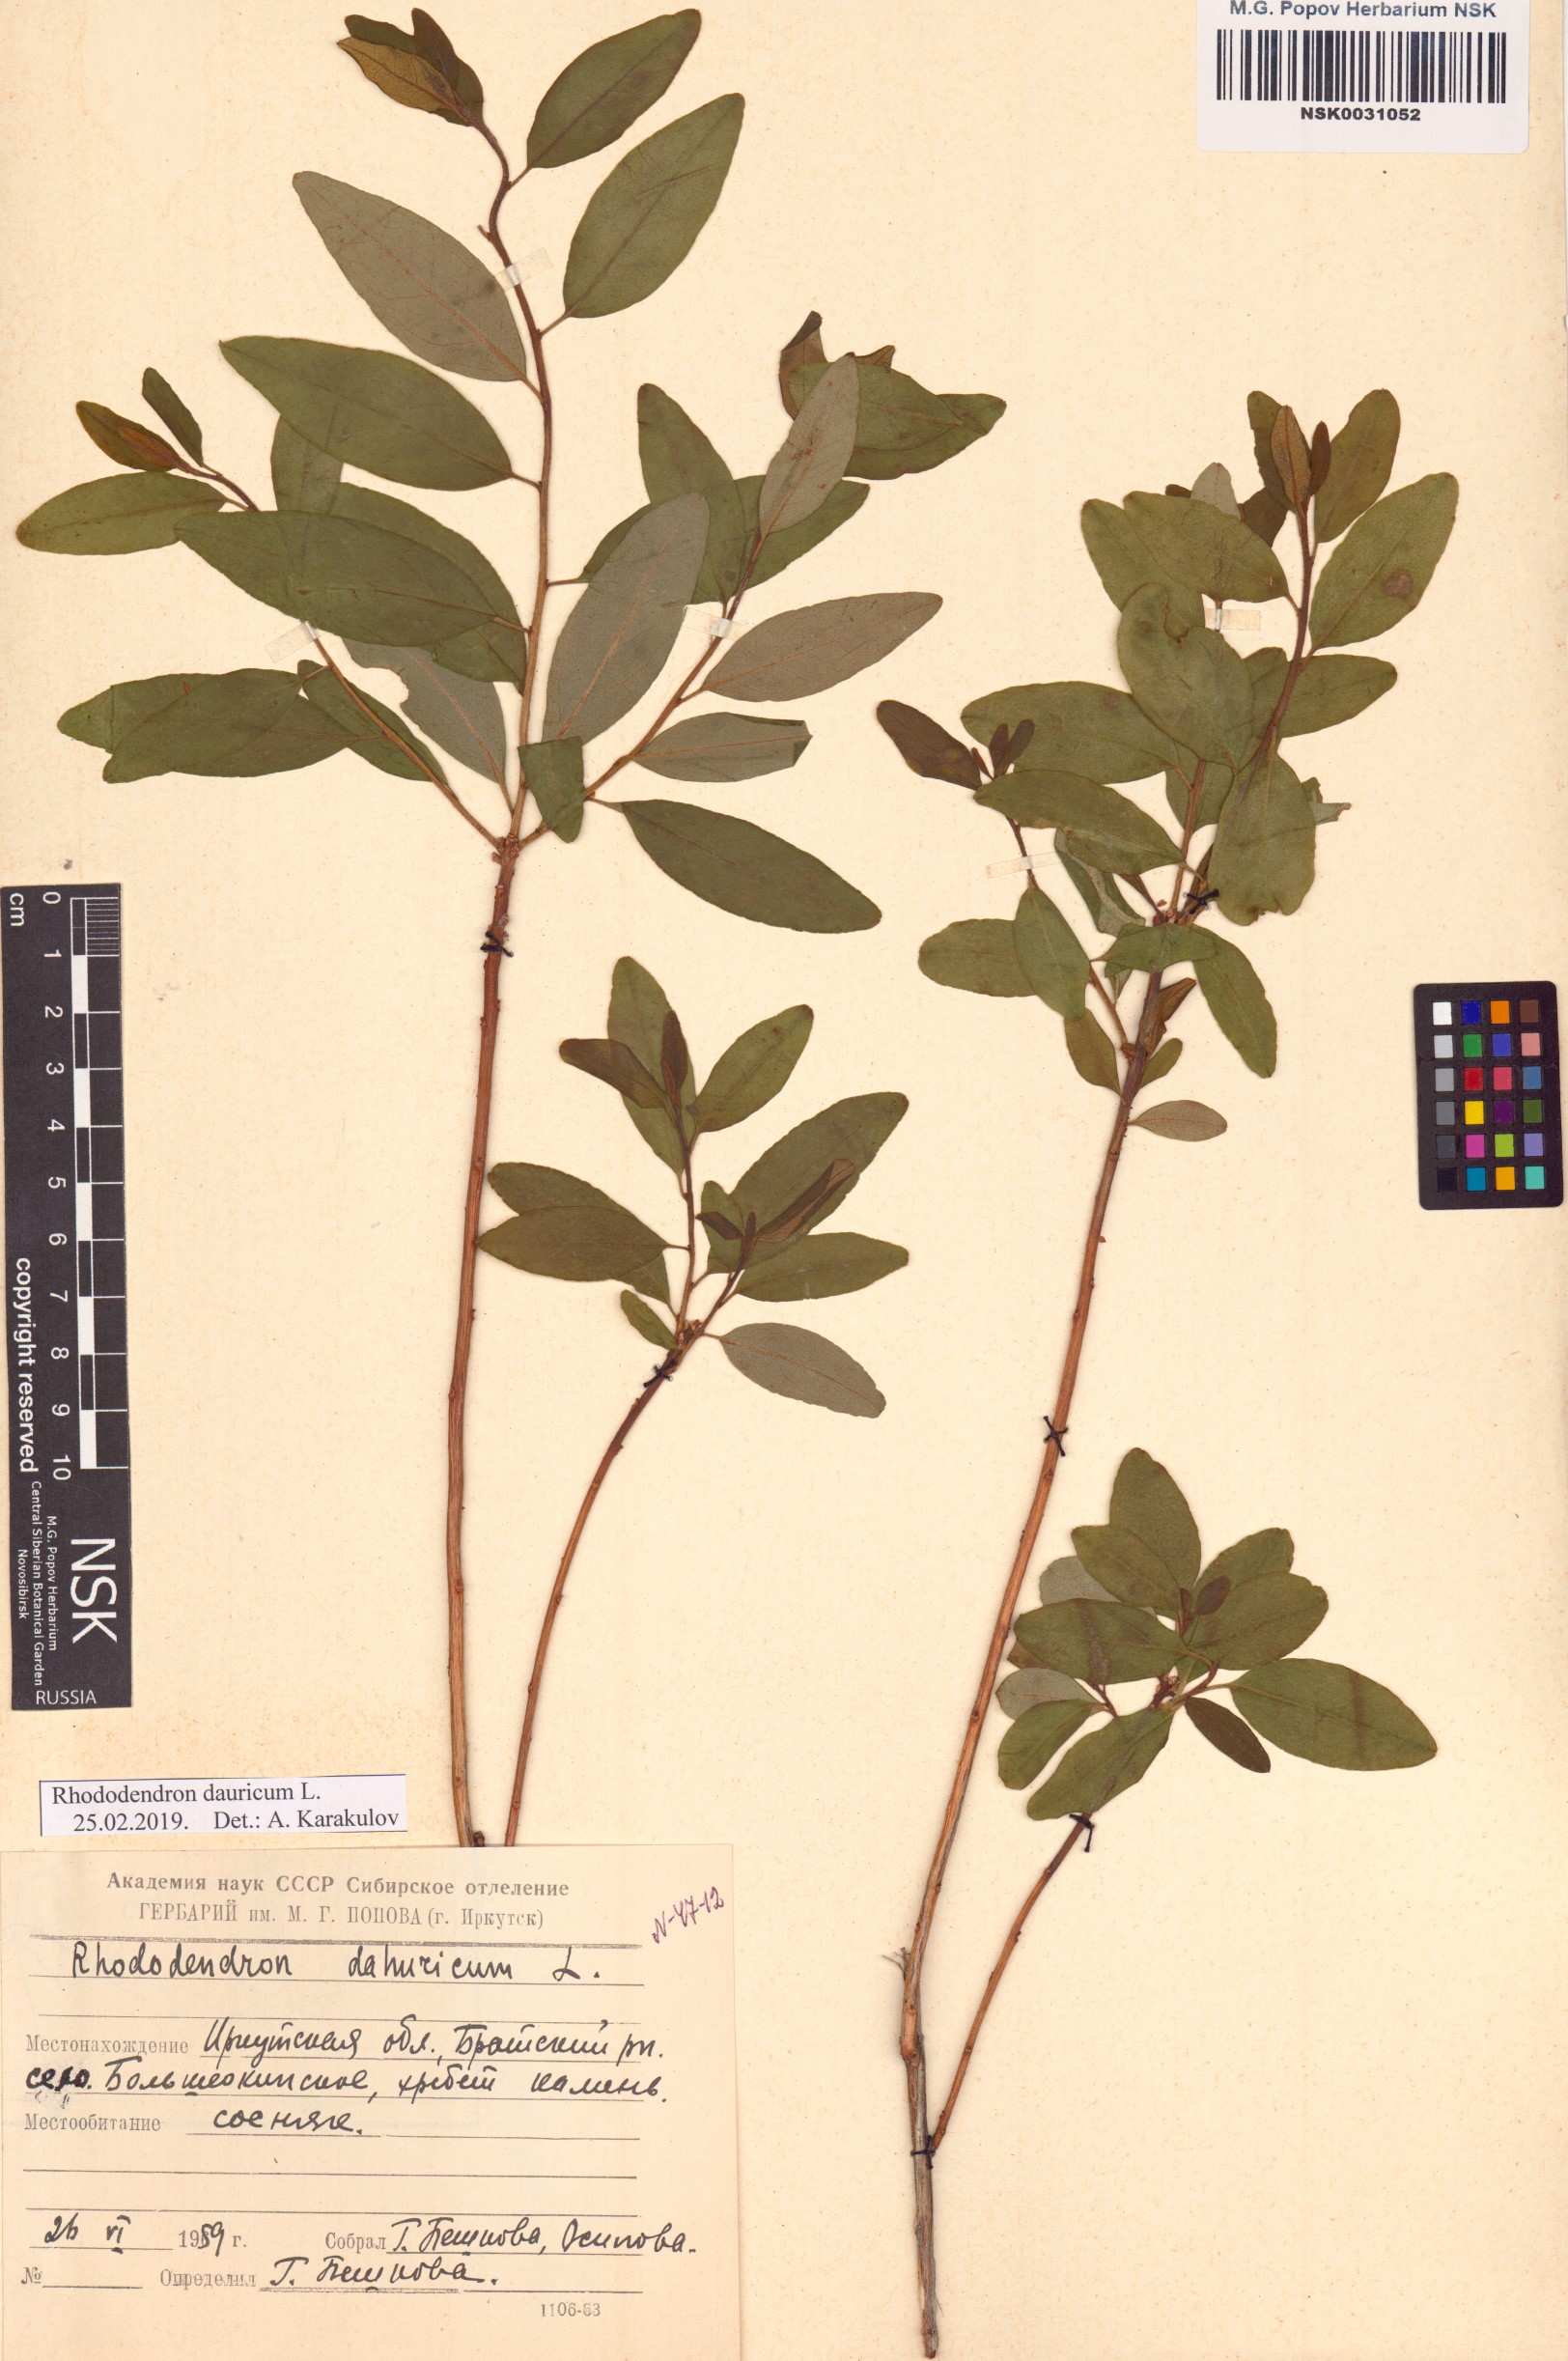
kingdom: Plantae
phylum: Tracheophyta
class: Magnoliopsida
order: Ericales
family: Ericaceae
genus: Rhododendron
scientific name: Rhododendron dauricum
